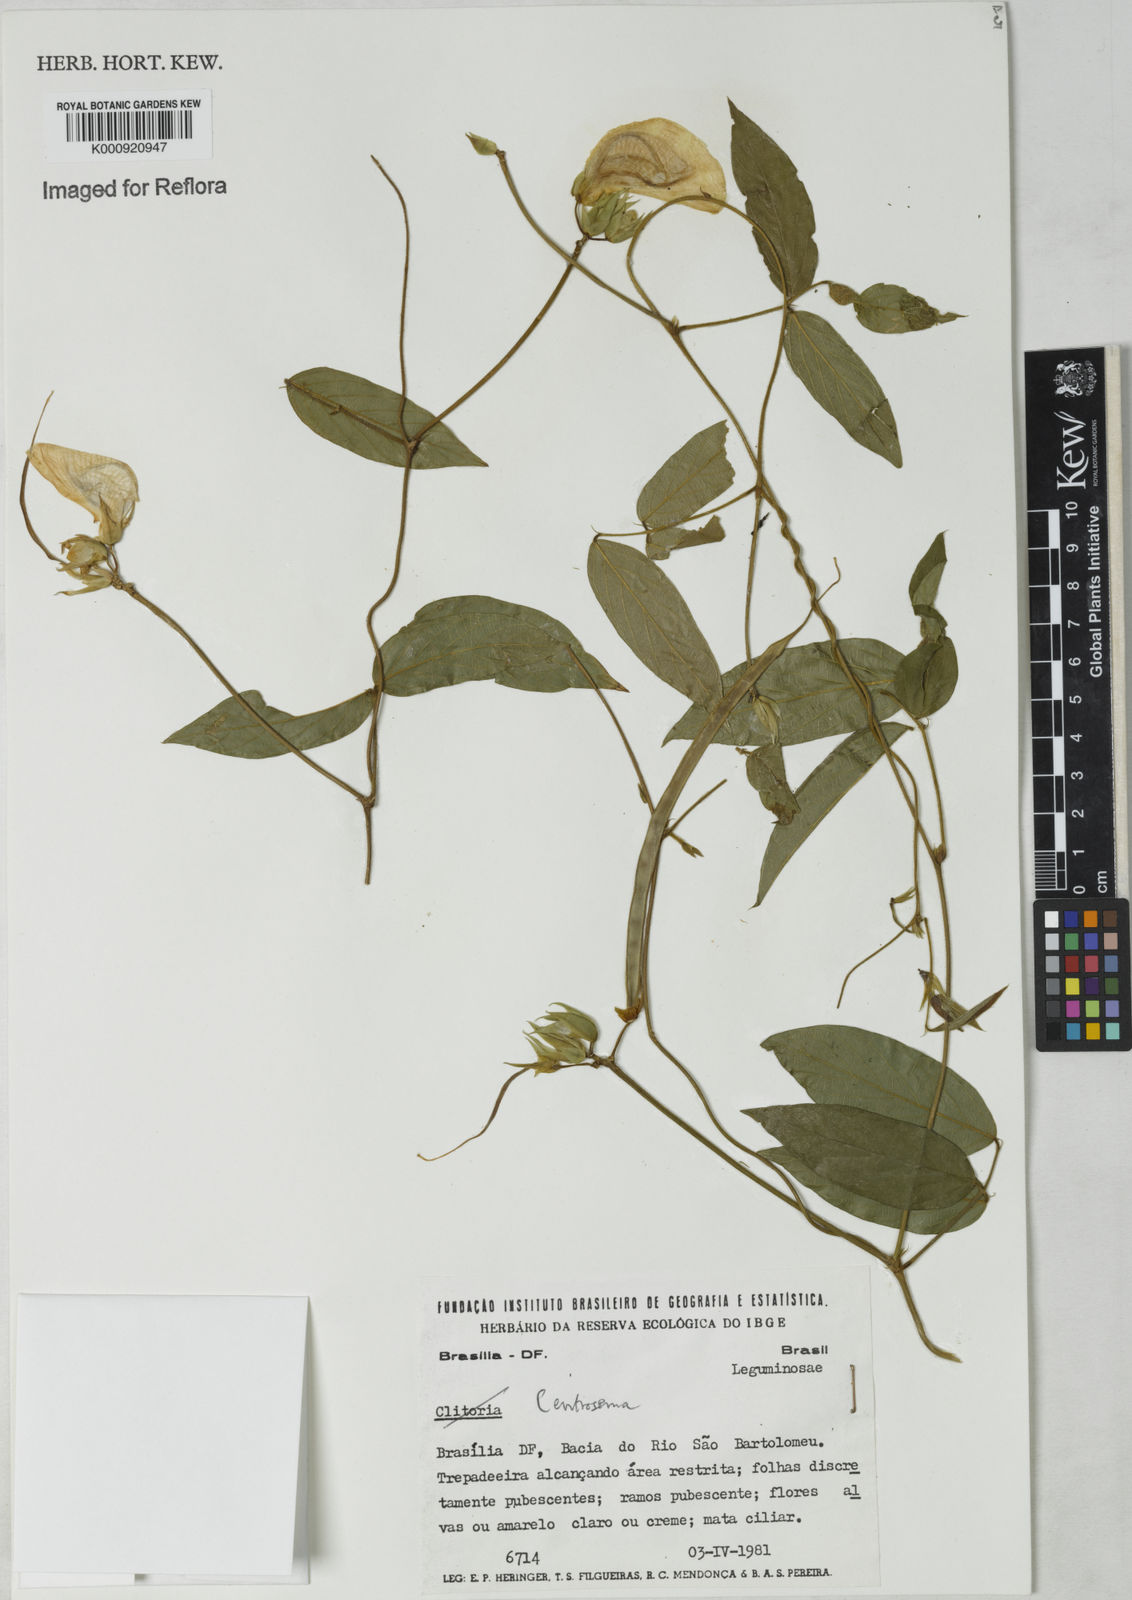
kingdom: Plantae
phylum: Tracheophyta
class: Magnoliopsida
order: Fabales
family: Fabaceae
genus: Centrosema
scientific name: Centrosema
